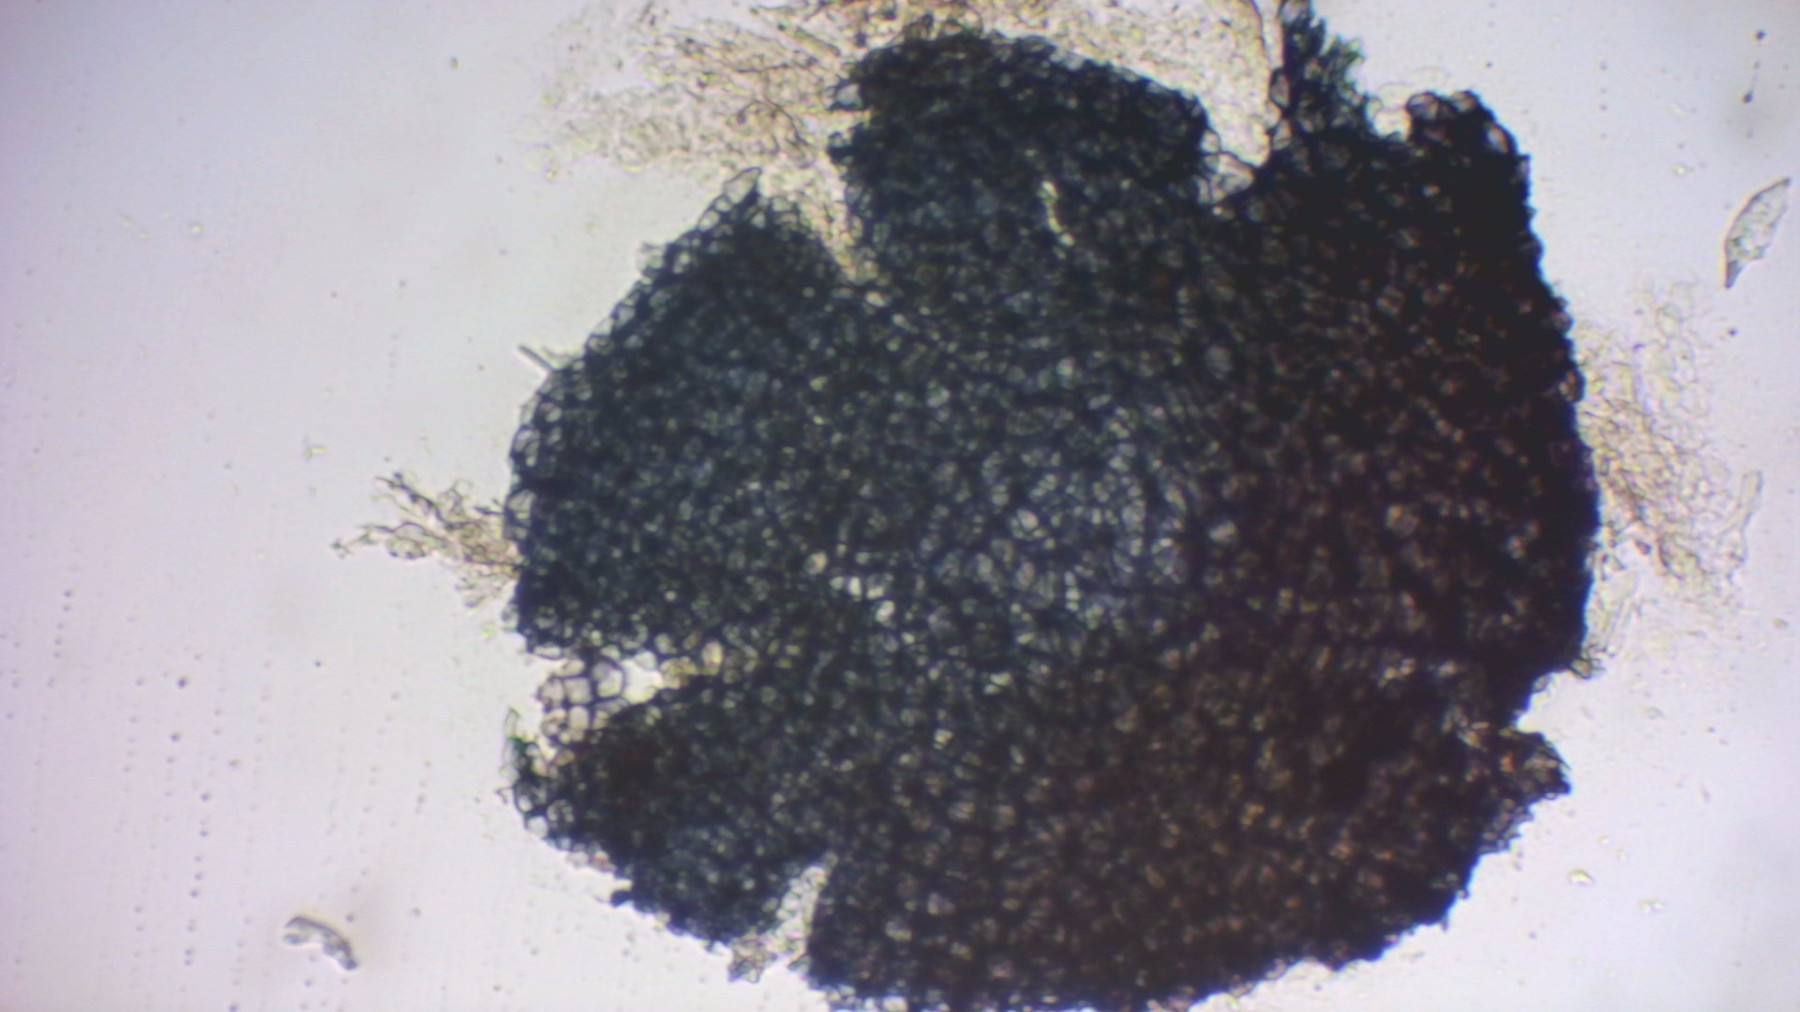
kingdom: Fungi
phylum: Ascomycota
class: Sordariomycetes
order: Hypocreales
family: Nectriaceae
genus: Fusarium
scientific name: Fusarium
